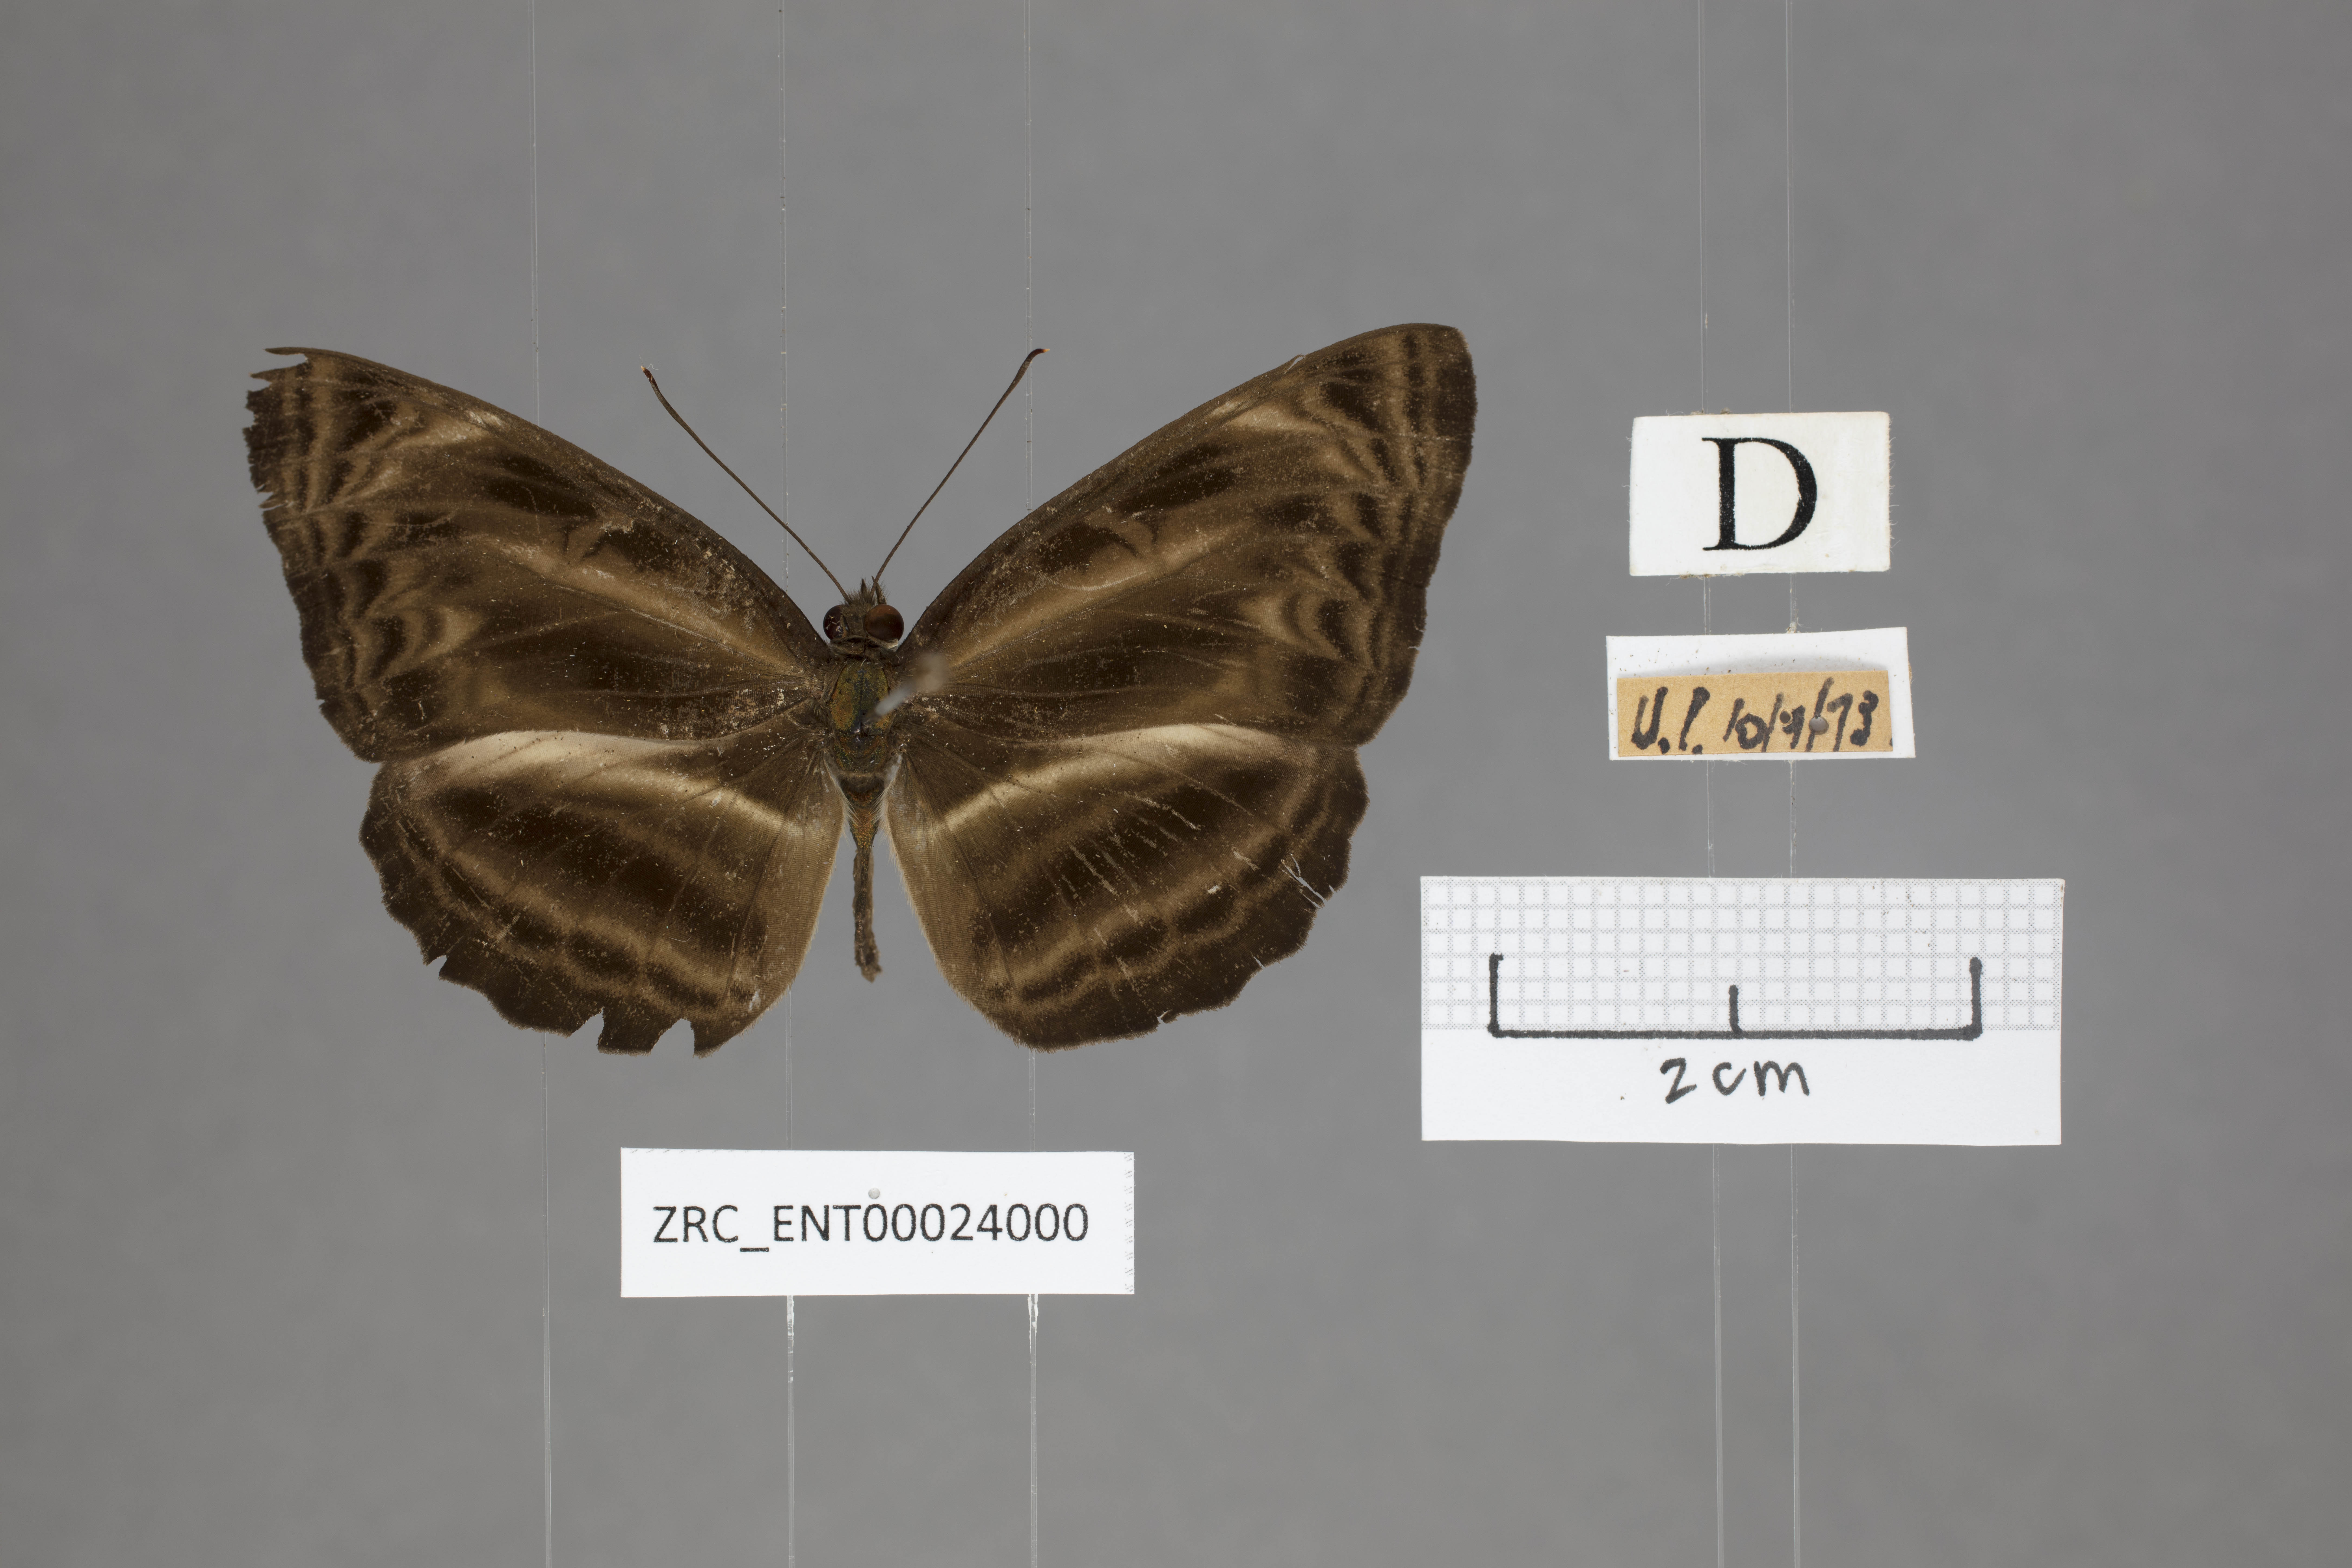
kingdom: Animalia
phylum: Arthropoda
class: Insecta
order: Lepidoptera
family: Nymphalidae
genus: Neptis
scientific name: Neptis harita
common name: Chocolate sailer
